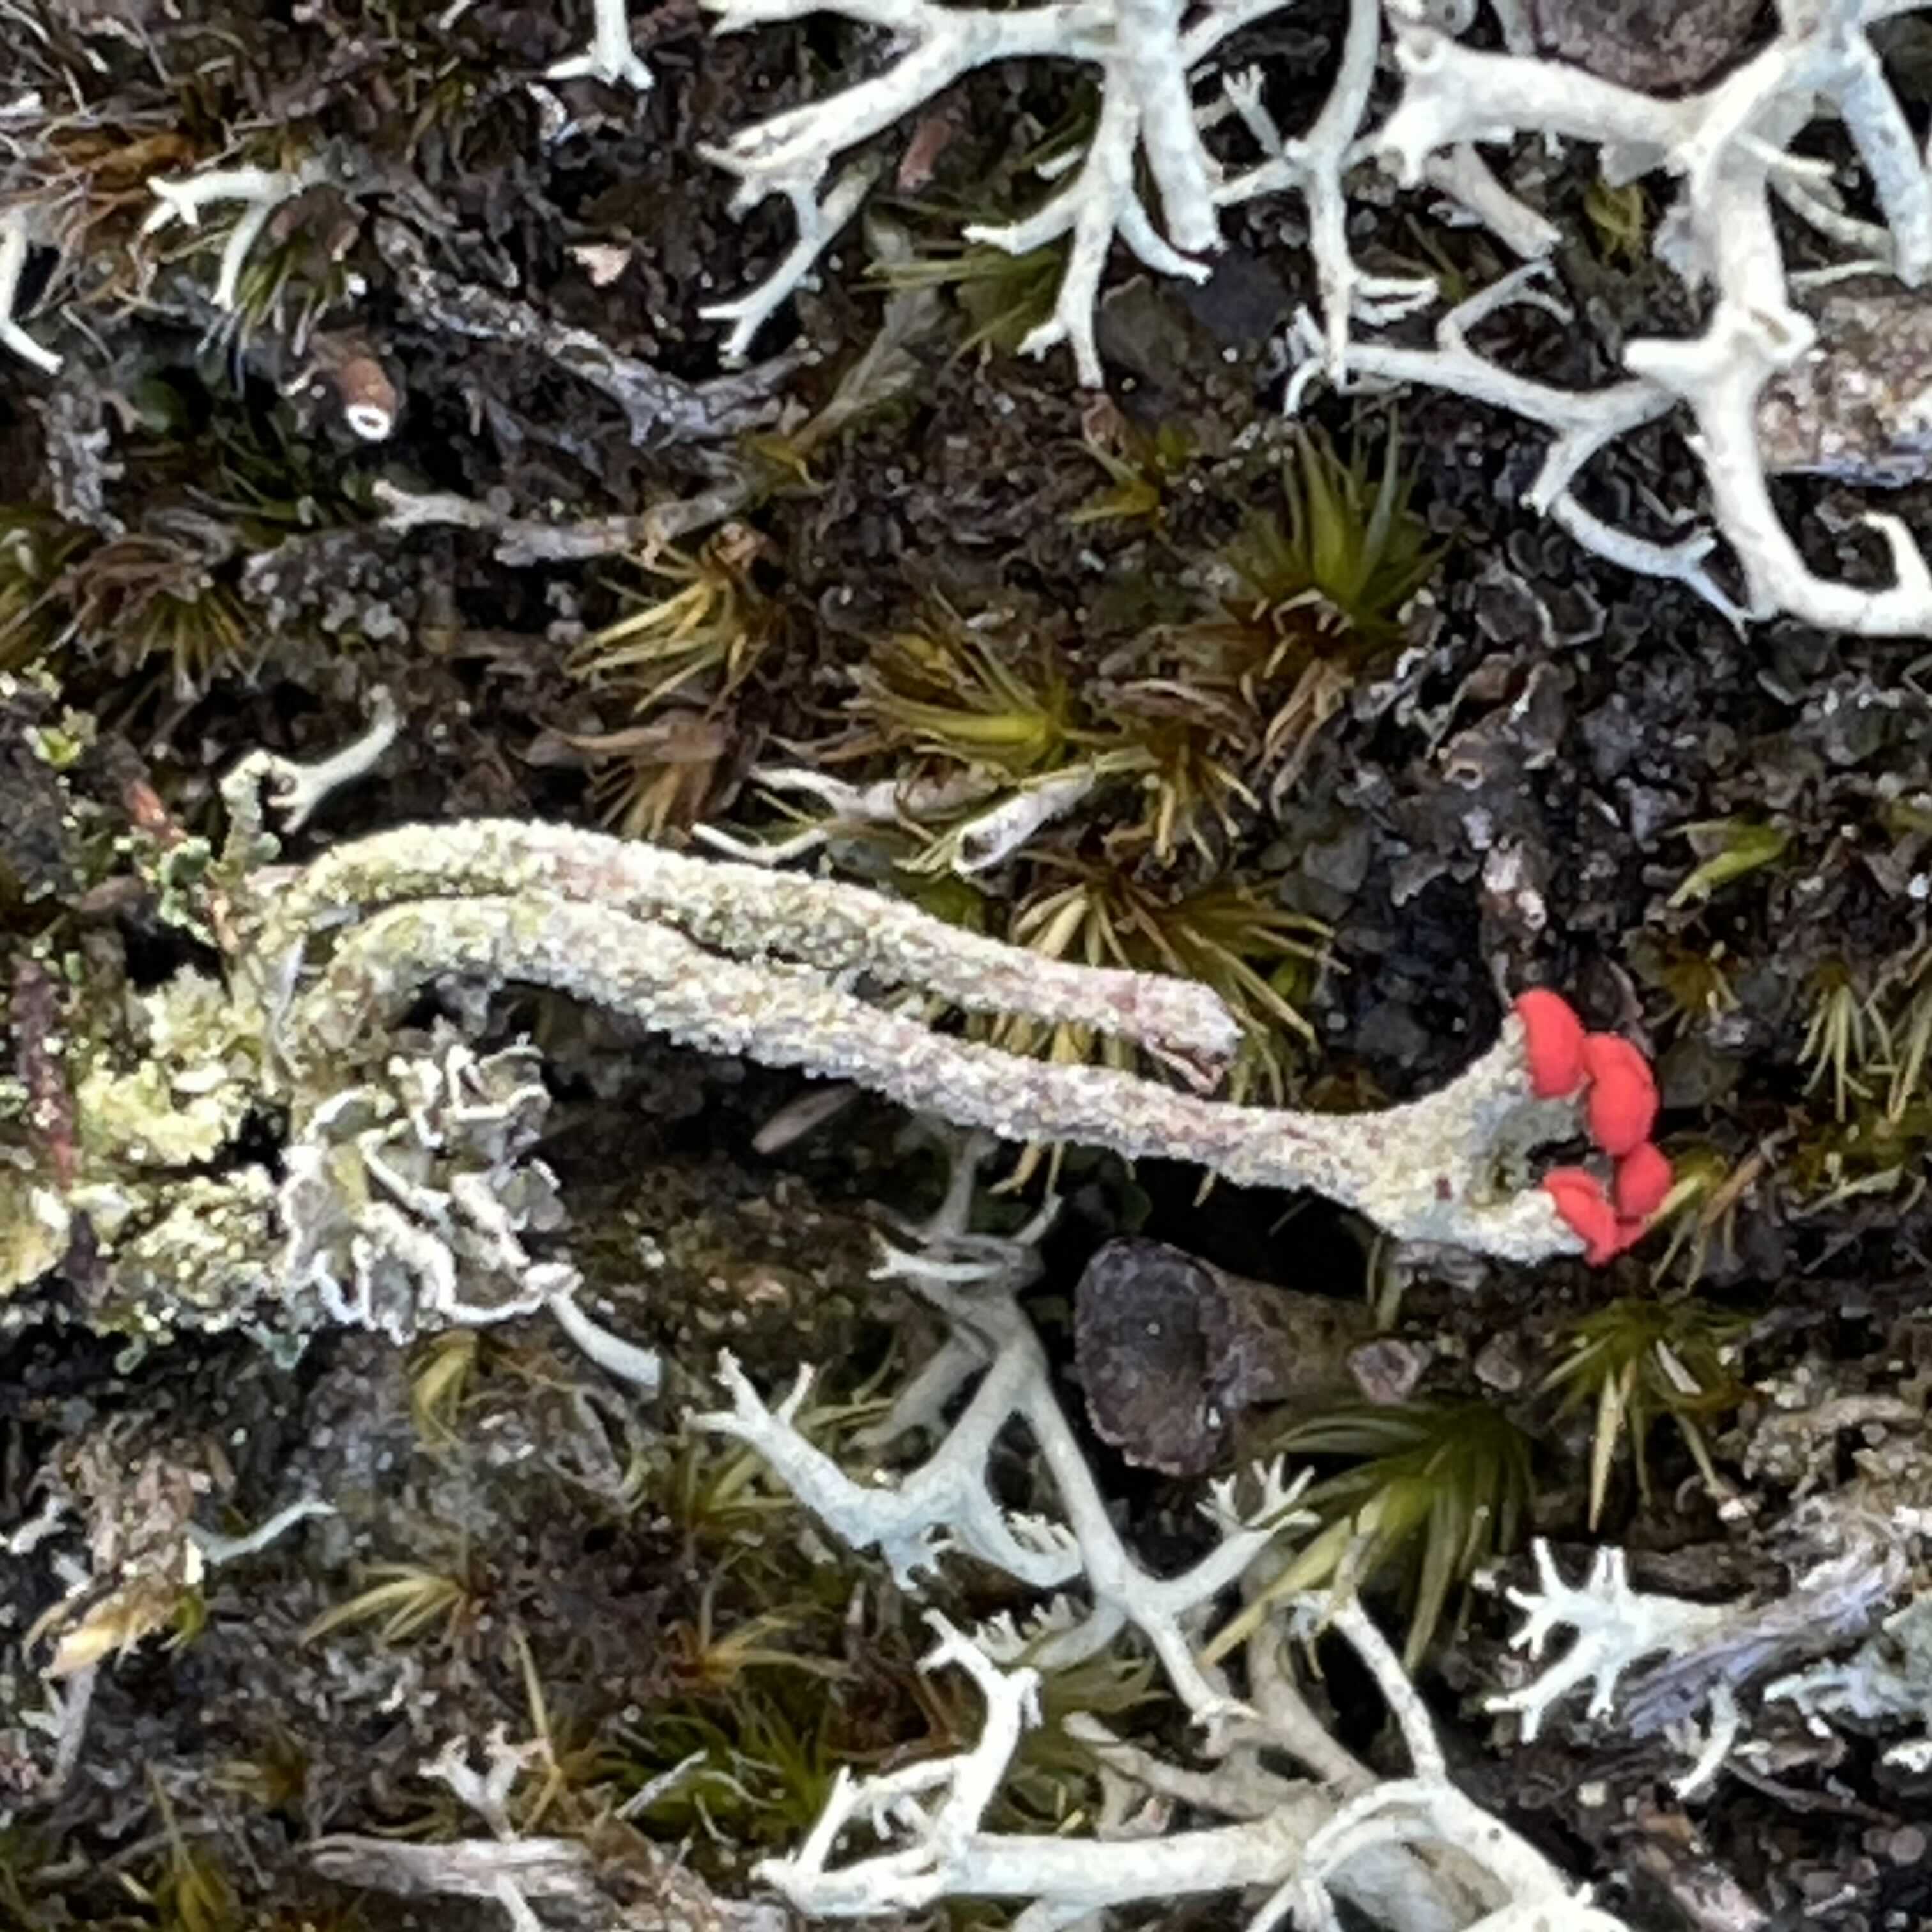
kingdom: Fungi
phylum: Ascomycota
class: Lecanoromycetes
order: Lecanorales
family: Cladoniaceae
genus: Cladonia
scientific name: Cladonia floerkeana
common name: lakrød bægerlav
